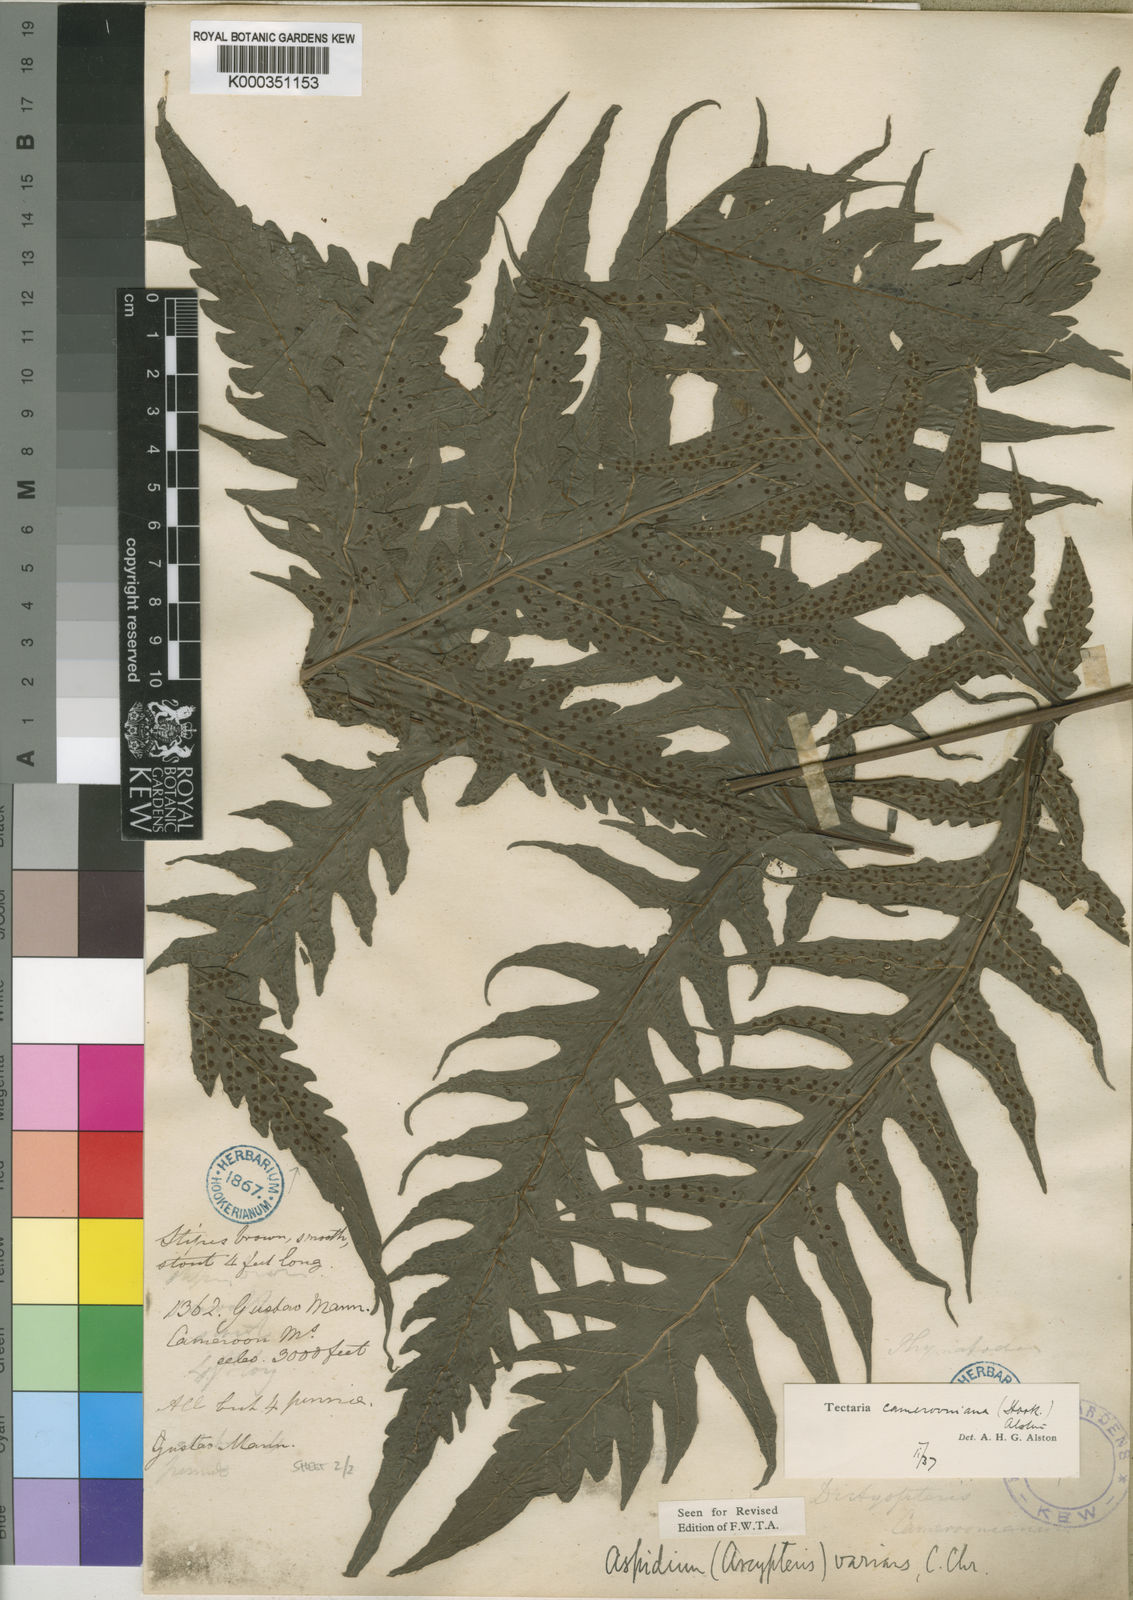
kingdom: Plantae
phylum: Tracheophyta
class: Polypodiopsida
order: Polypodiales
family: Tectariaceae
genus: Tectaria
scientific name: Tectaria camerooniana
